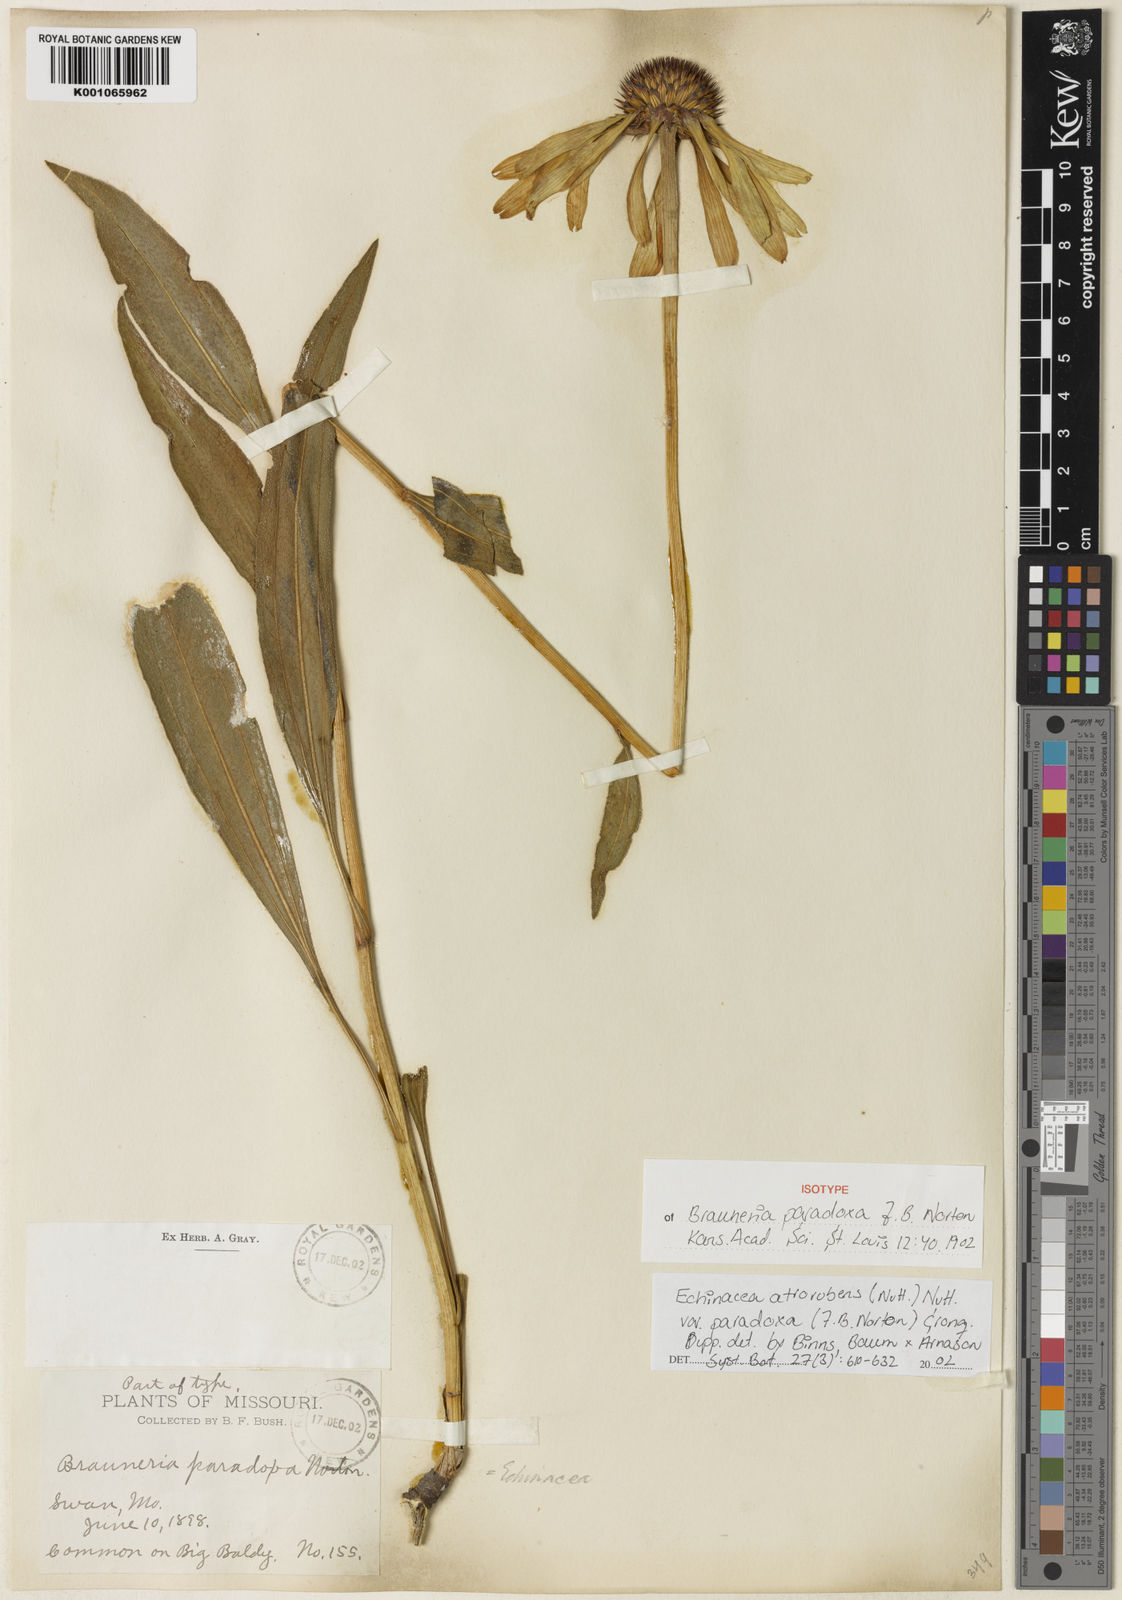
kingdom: Plantae
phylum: Tracheophyta
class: Magnoliopsida
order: Asterales
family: Asteraceae
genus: Echinacea
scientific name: Echinacea paradoxa
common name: Bush's purple-coneflower
